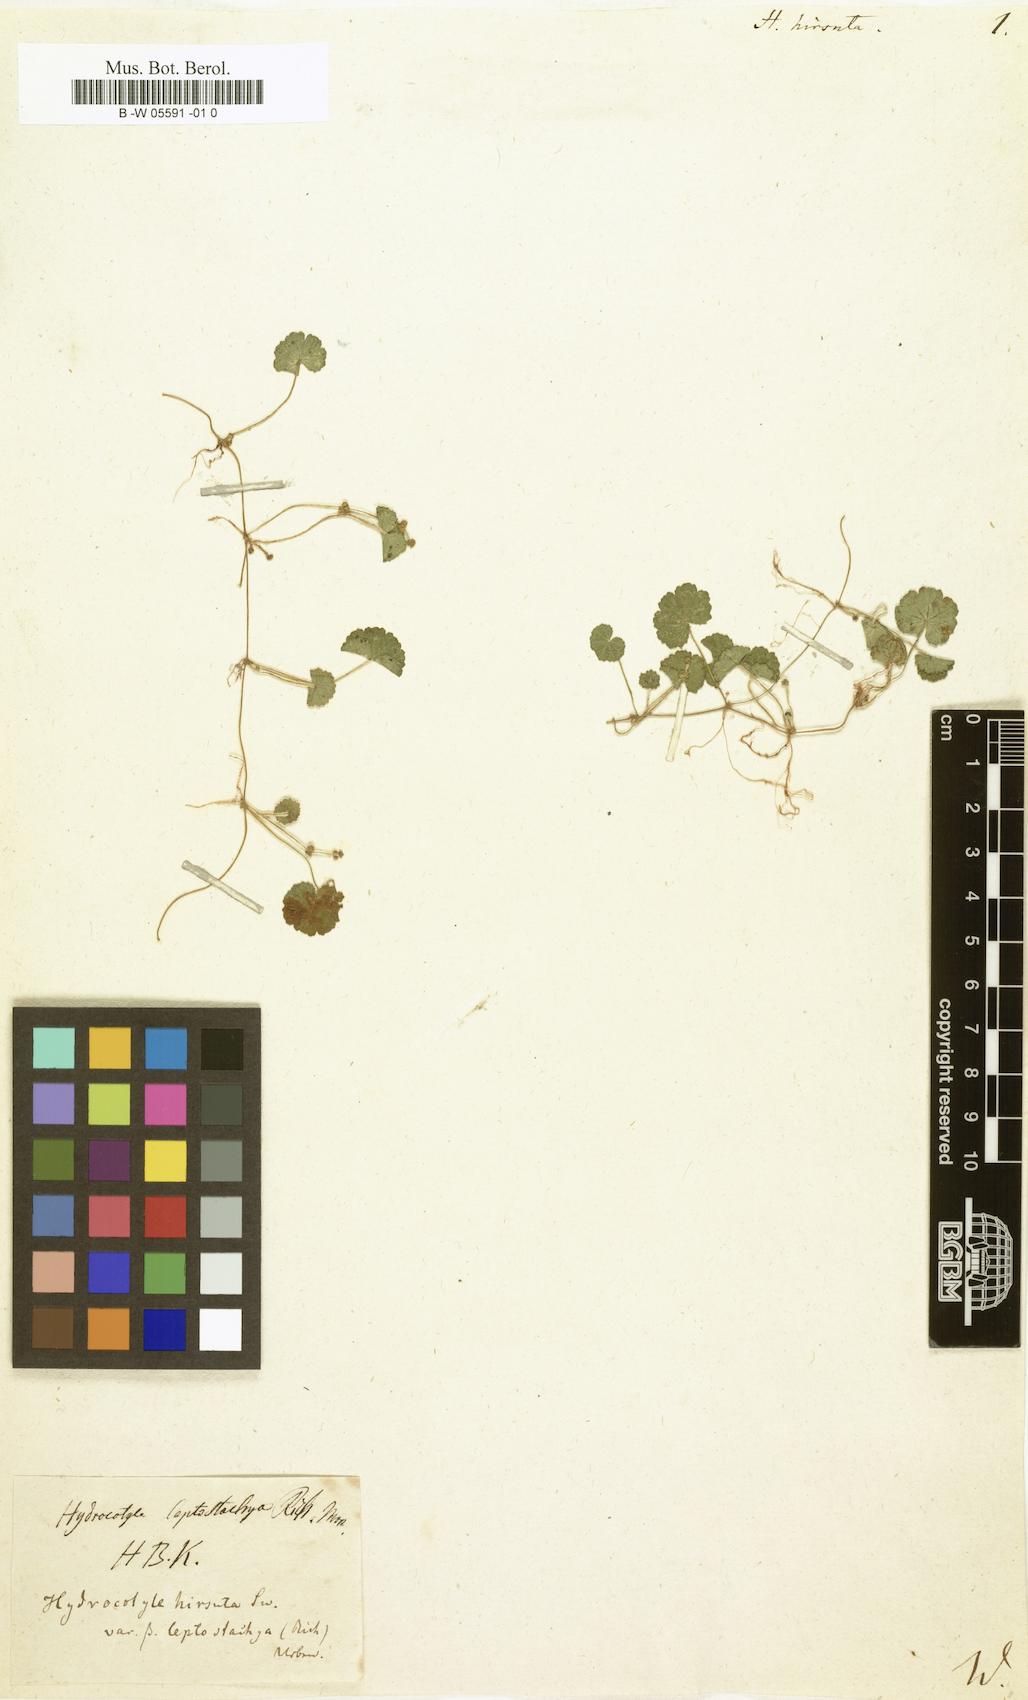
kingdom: Plantae
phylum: Tracheophyta
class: Magnoliopsida
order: Apiales
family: Araliaceae
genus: Hydrocotyle
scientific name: Hydrocotyle hirsuta
